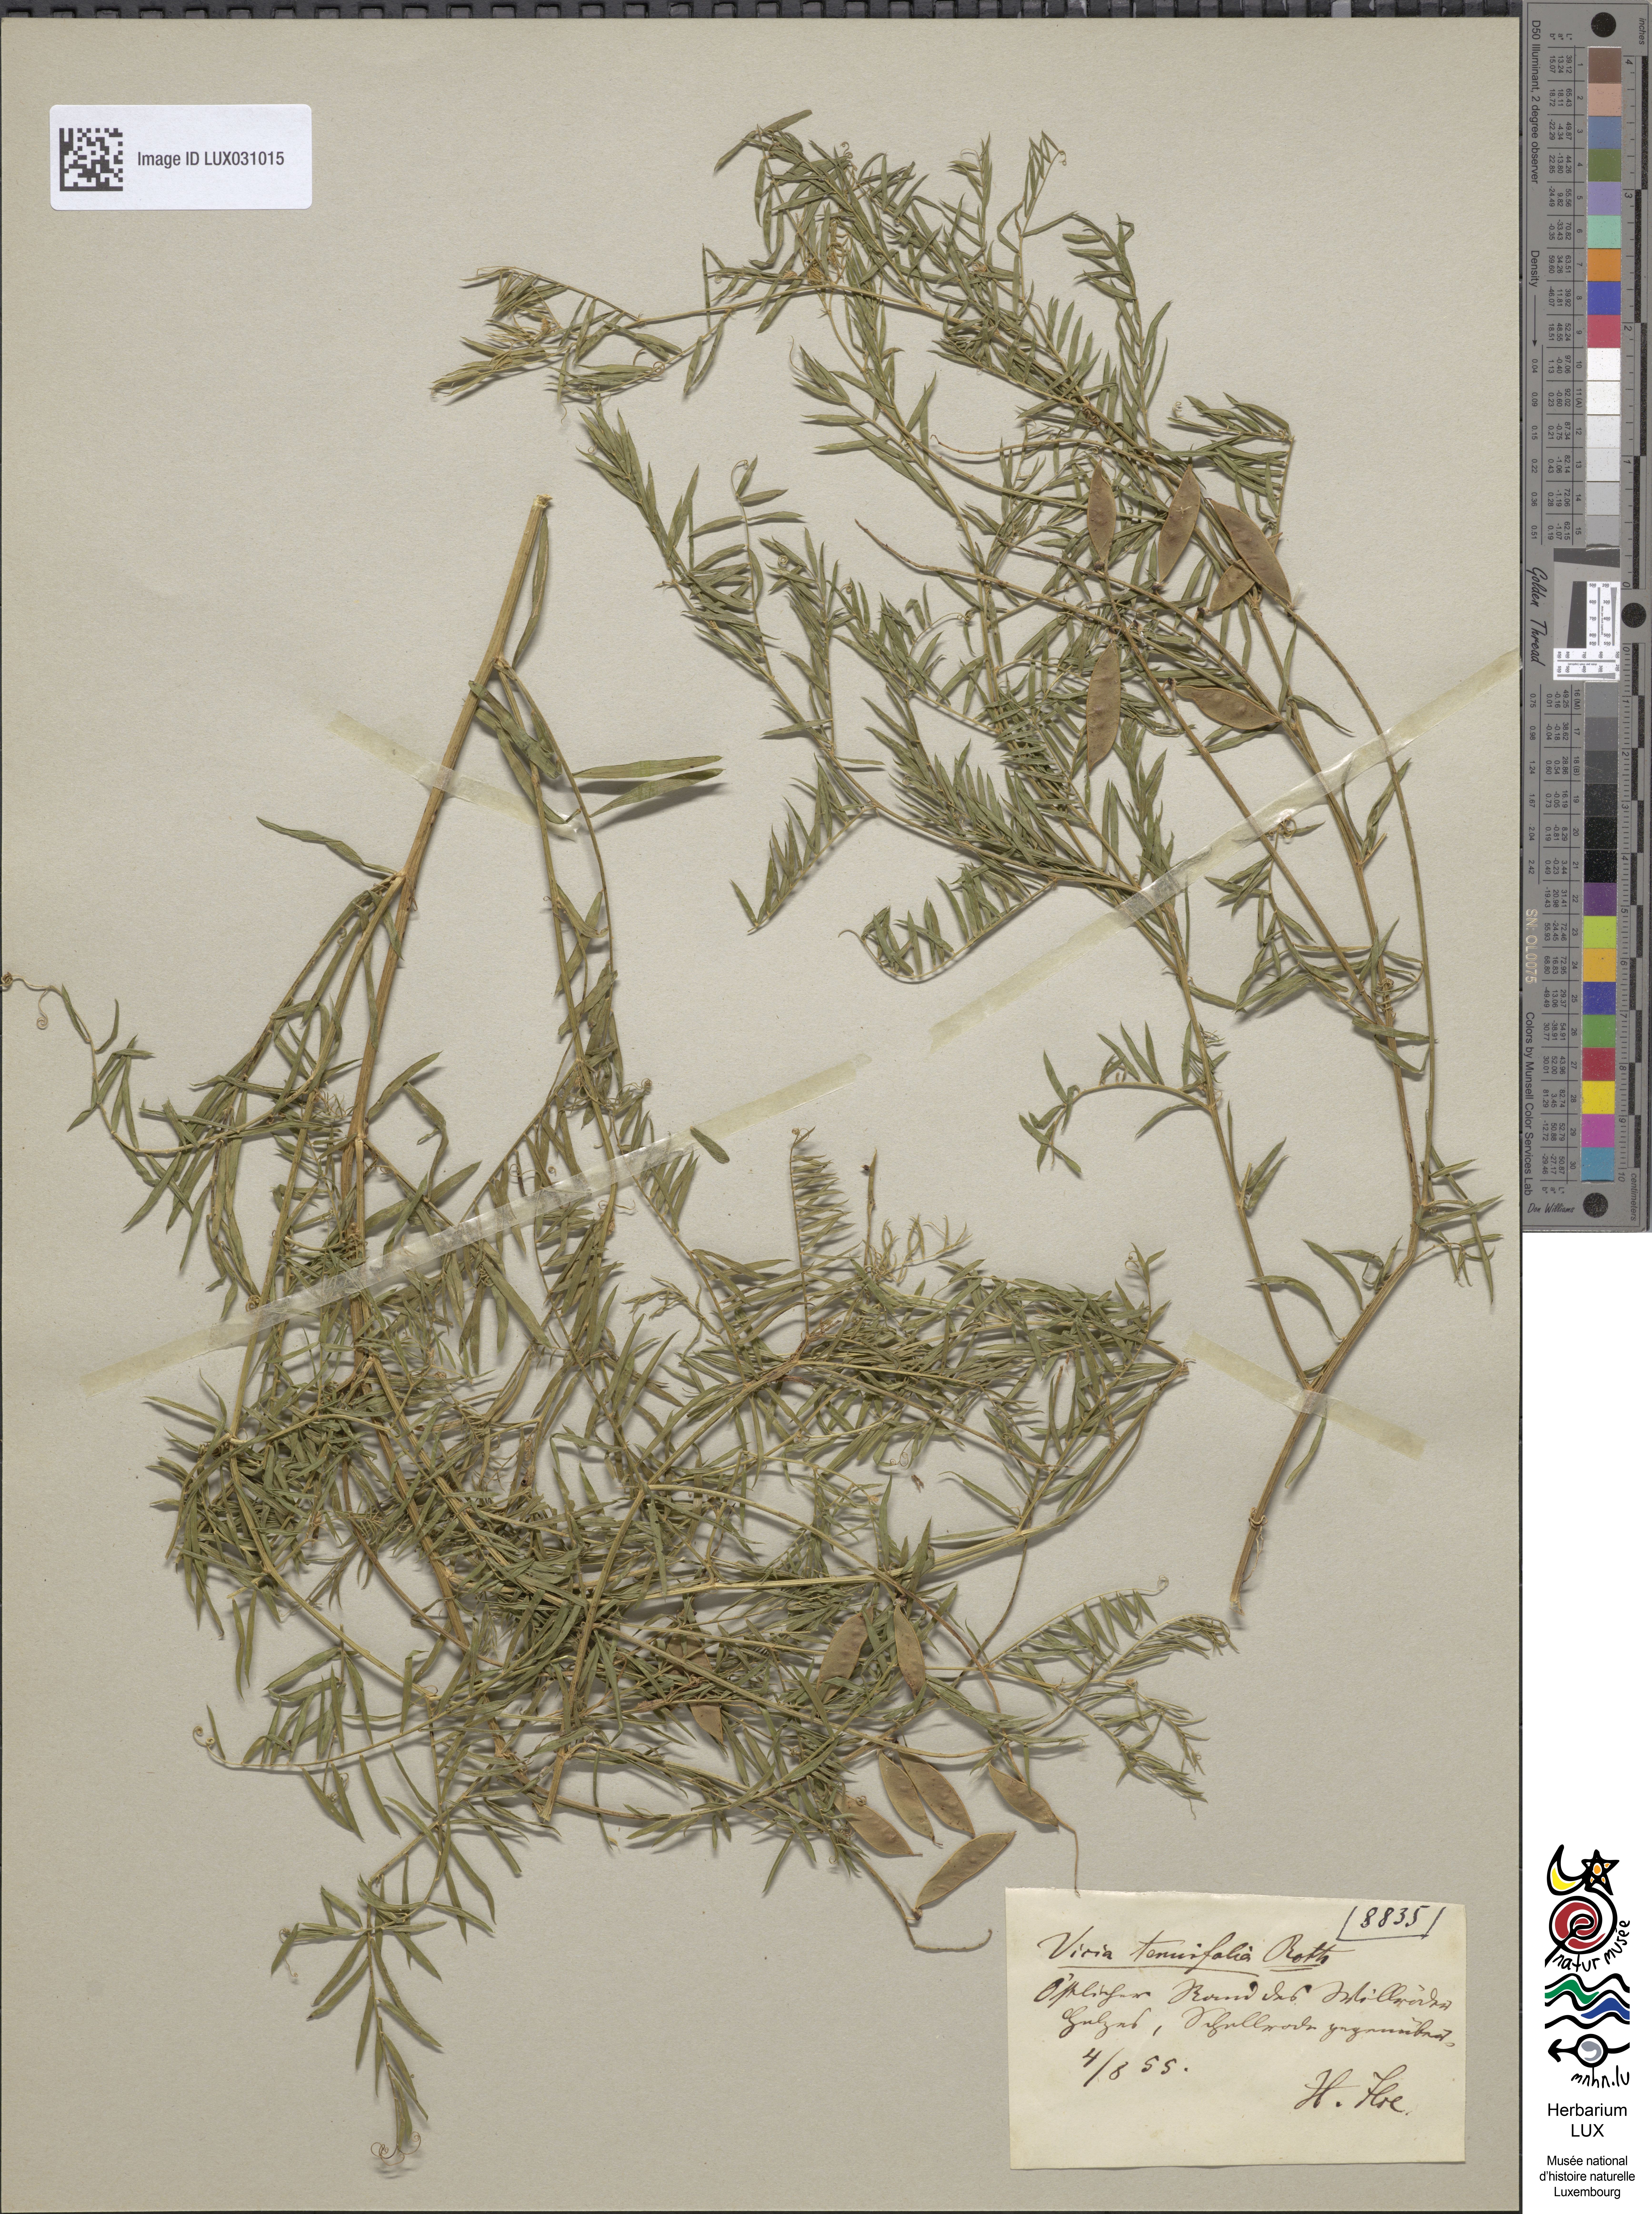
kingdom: Plantae
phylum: Tracheophyta
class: Magnoliopsida
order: Fabales
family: Fabaceae
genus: Vicia
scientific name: Vicia tenuifolia
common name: Fine-leaved vetch
